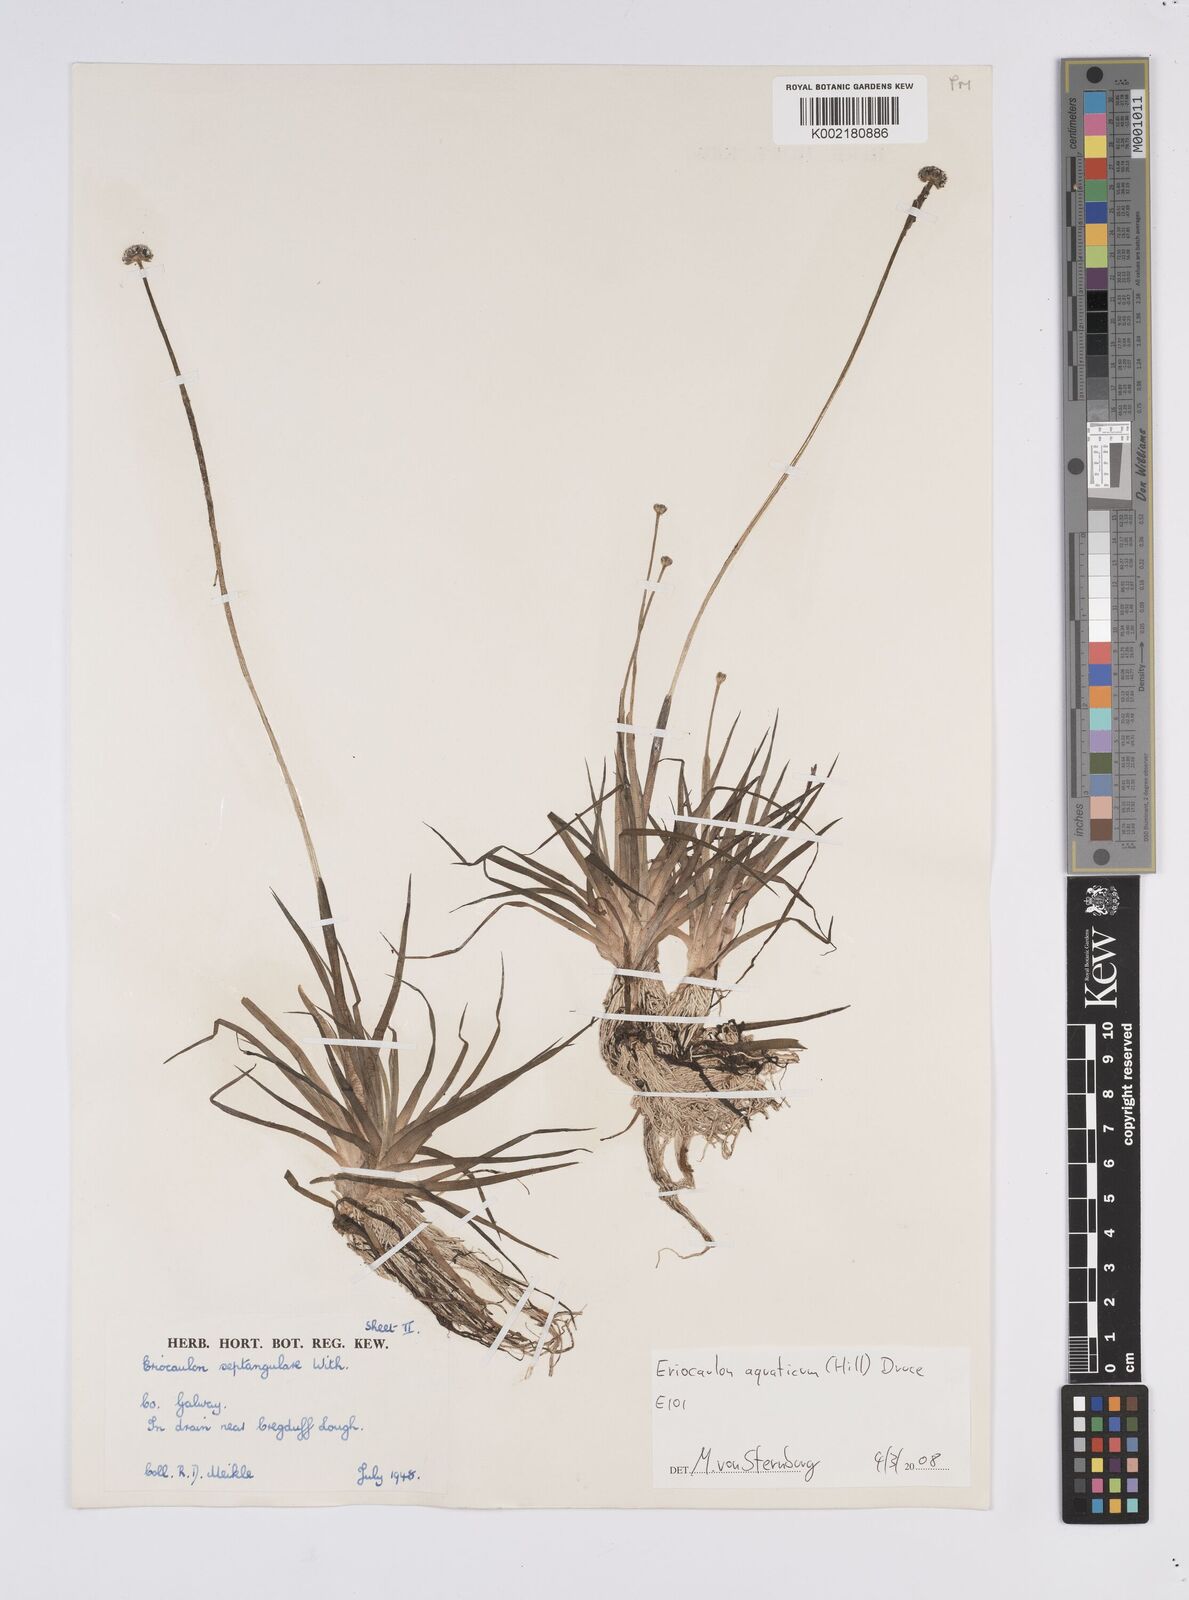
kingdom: Plantae
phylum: Tracheophyta
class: Liliopsida
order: Poales
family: Eriocaulaceae
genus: Eriocaulon
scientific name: Eriocaulon aquaticum
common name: Pipewort
